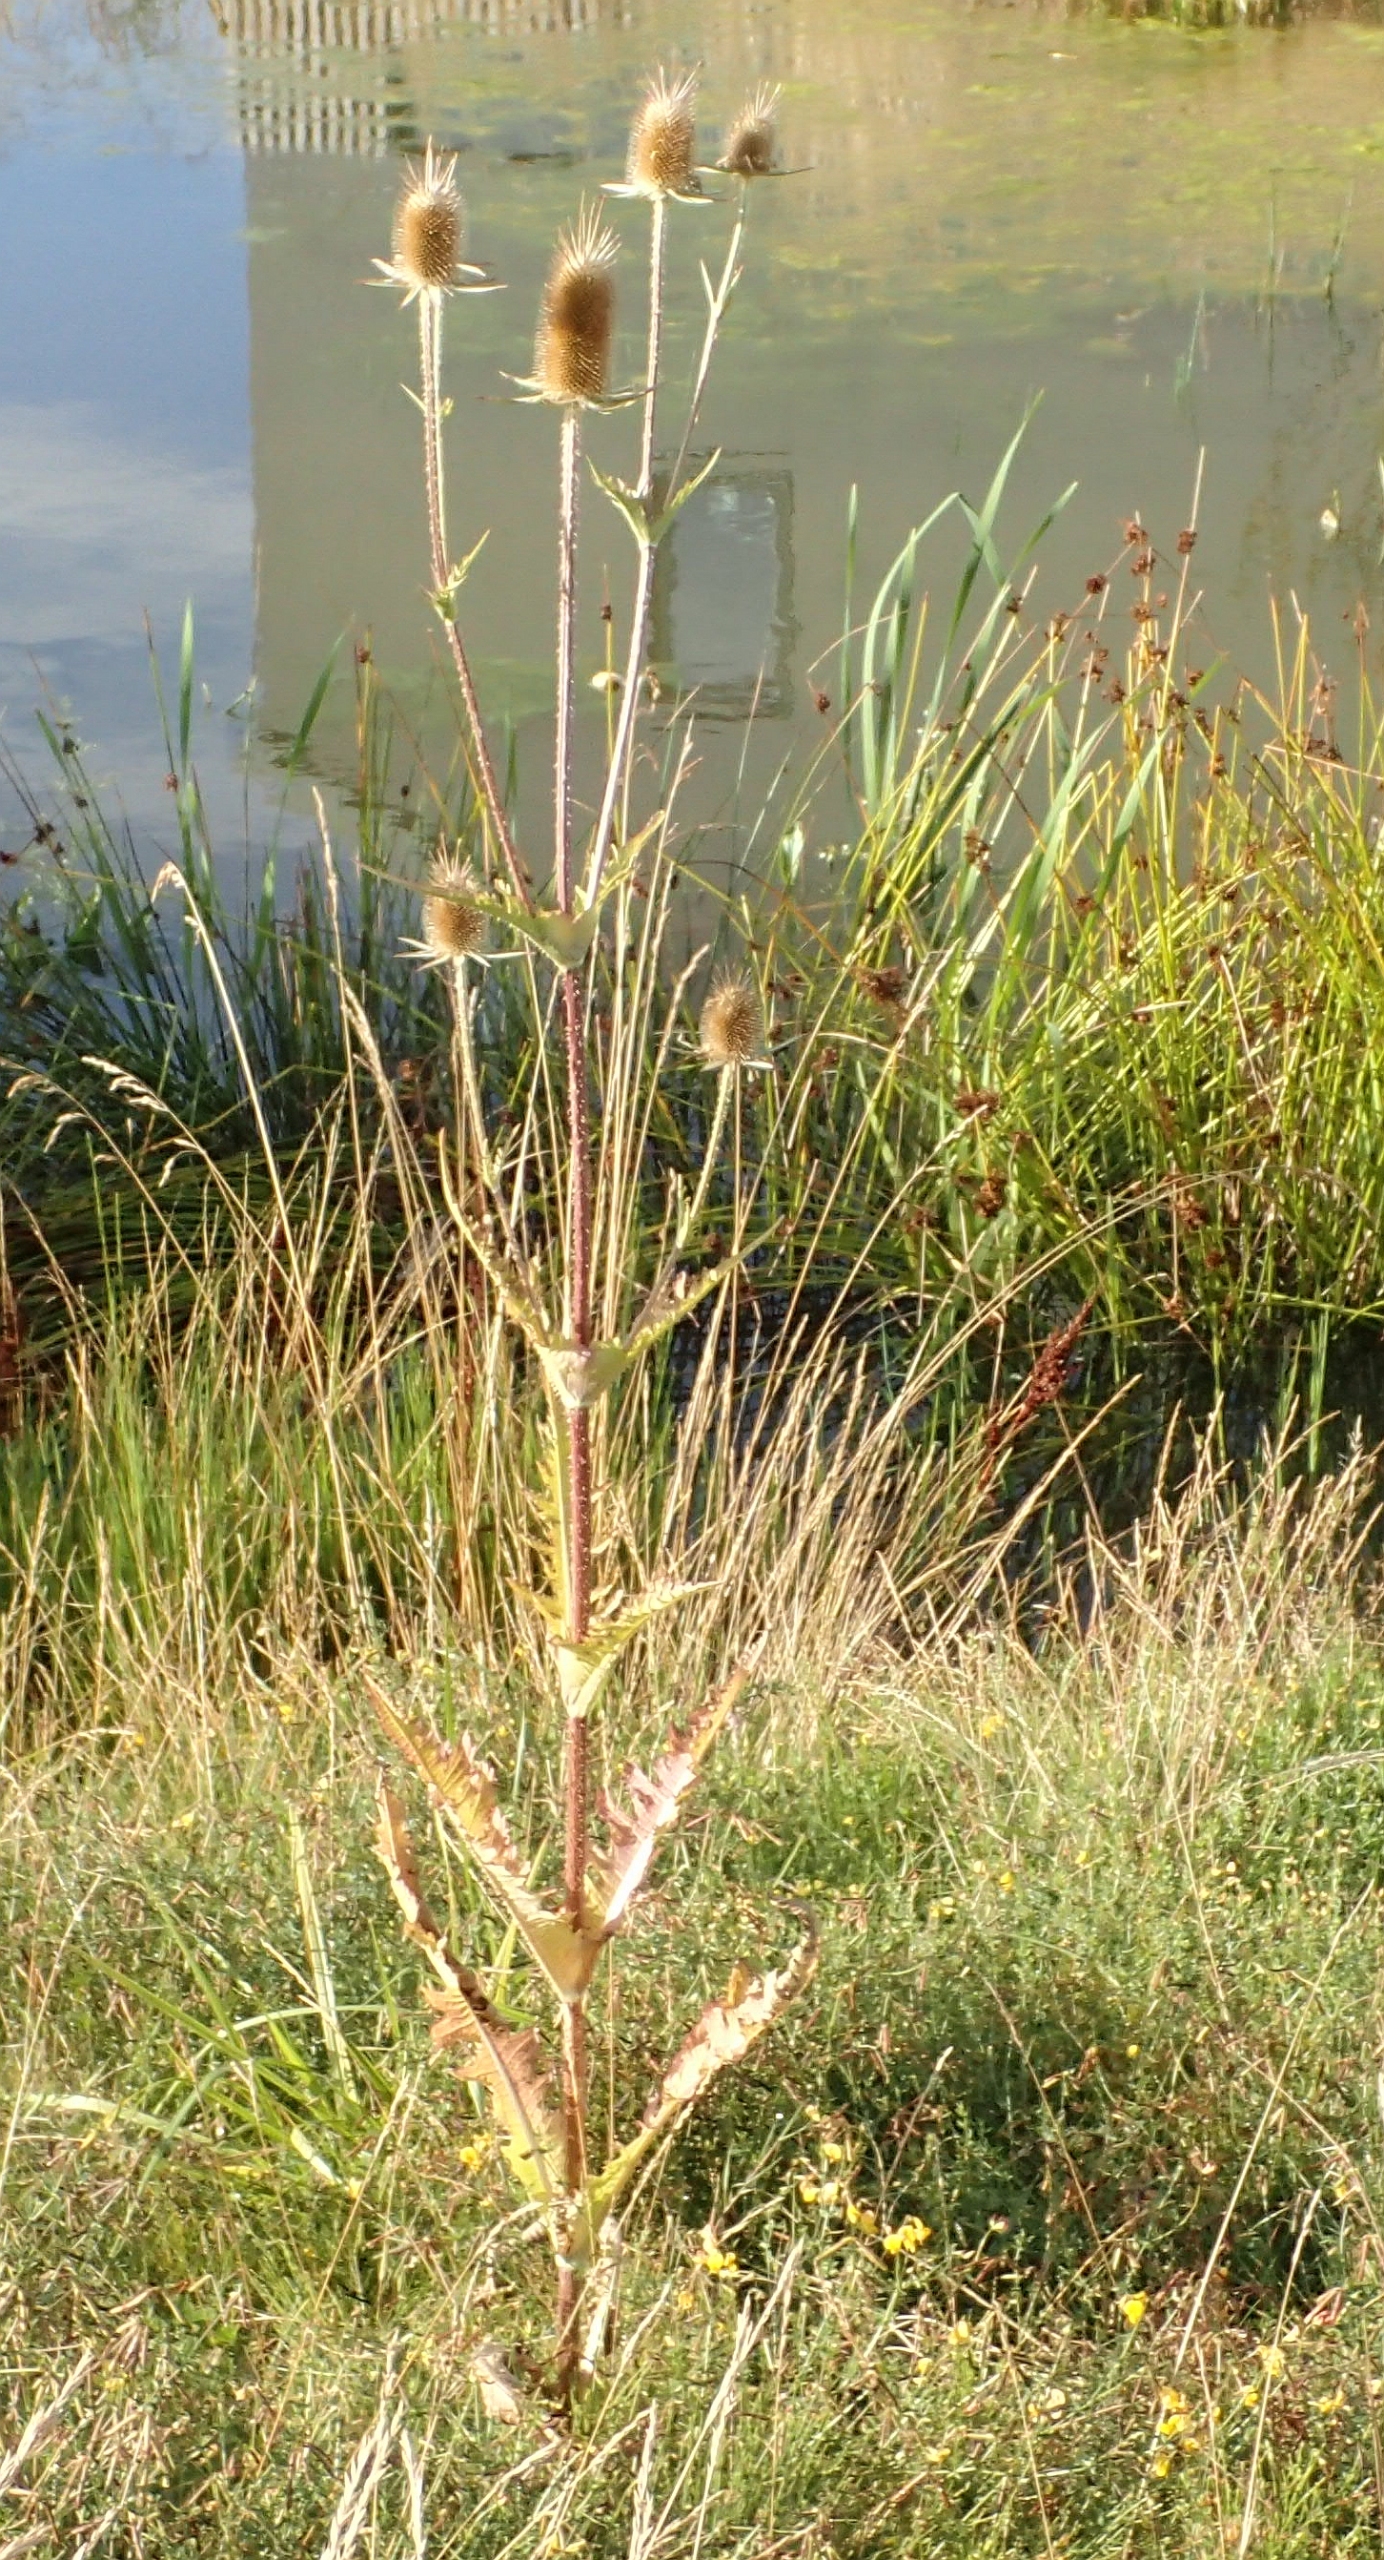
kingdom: Plantae
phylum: Tracheophyta
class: Magnoliopsida
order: Dipsacales
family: Caprifoliaceae
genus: Dipsacus
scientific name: Dipsacus laciniatus
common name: Fliget kartebolle
